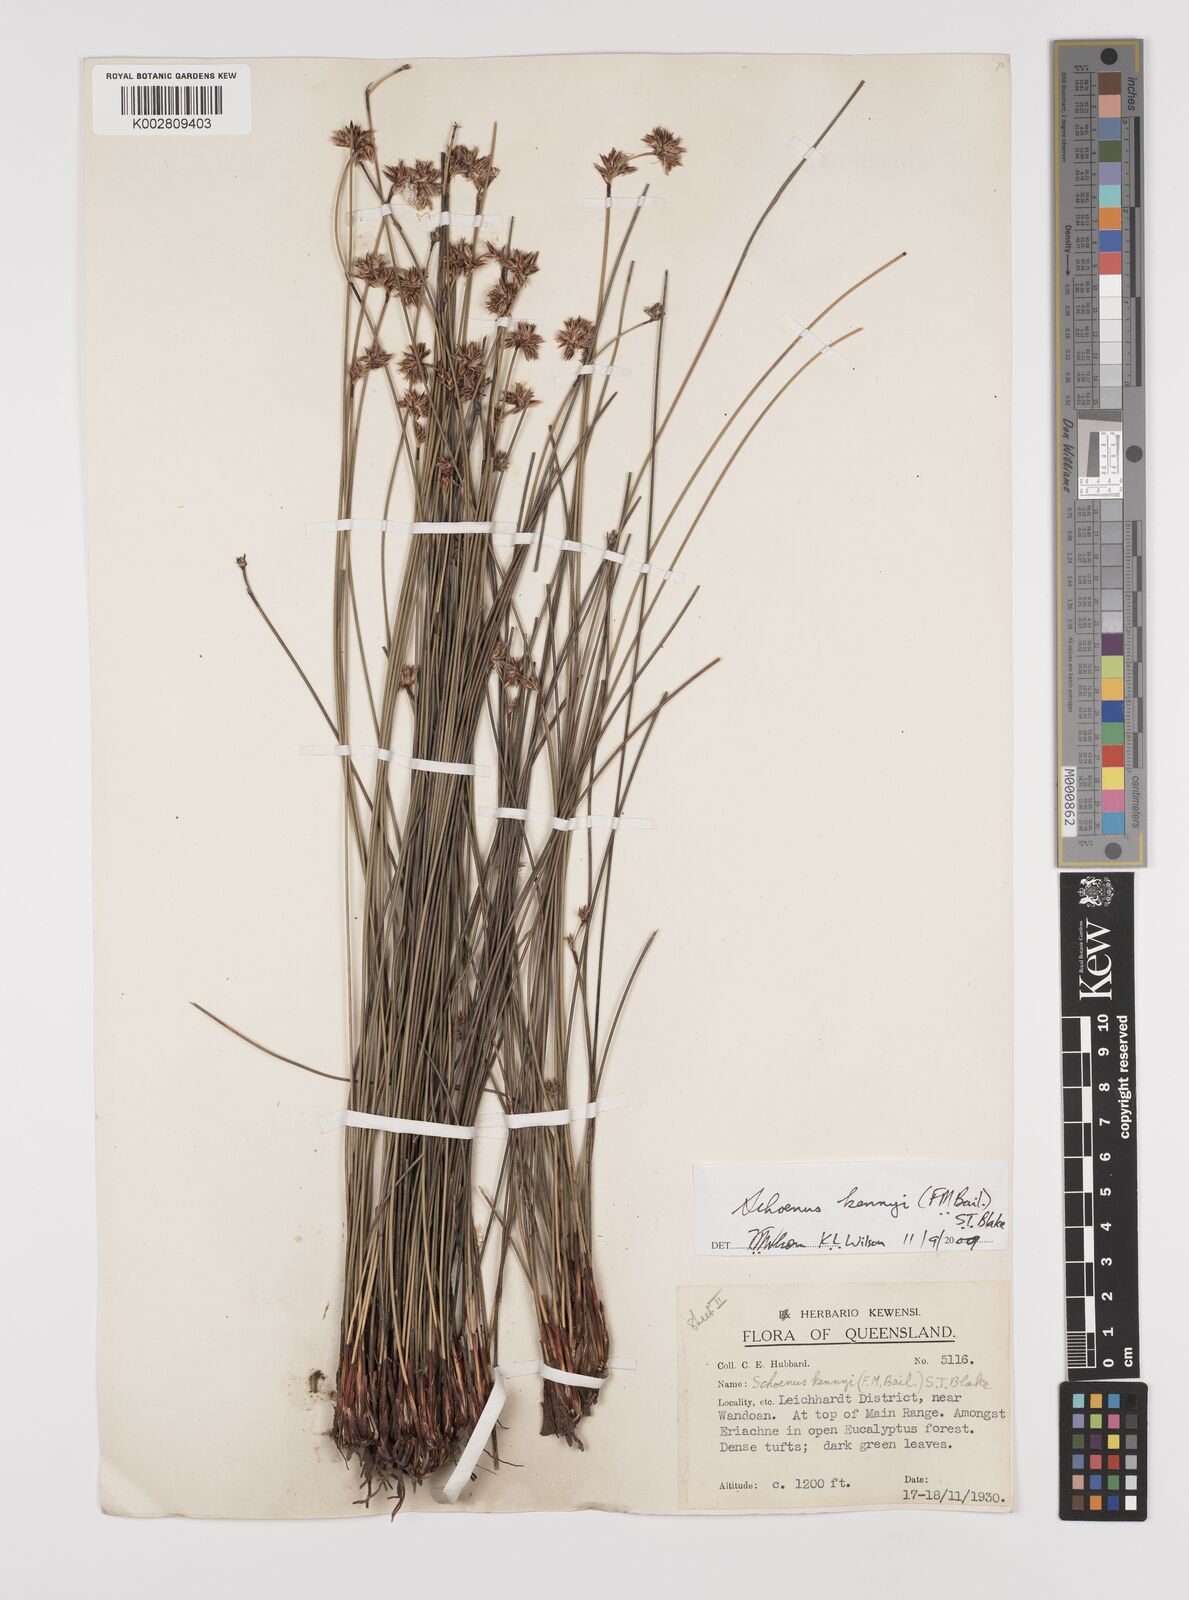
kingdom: Plantae
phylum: Tracheophyta
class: Liliopsida
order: Poales
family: Cyperaceae
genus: Schoenus
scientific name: Schoenus kennyi
